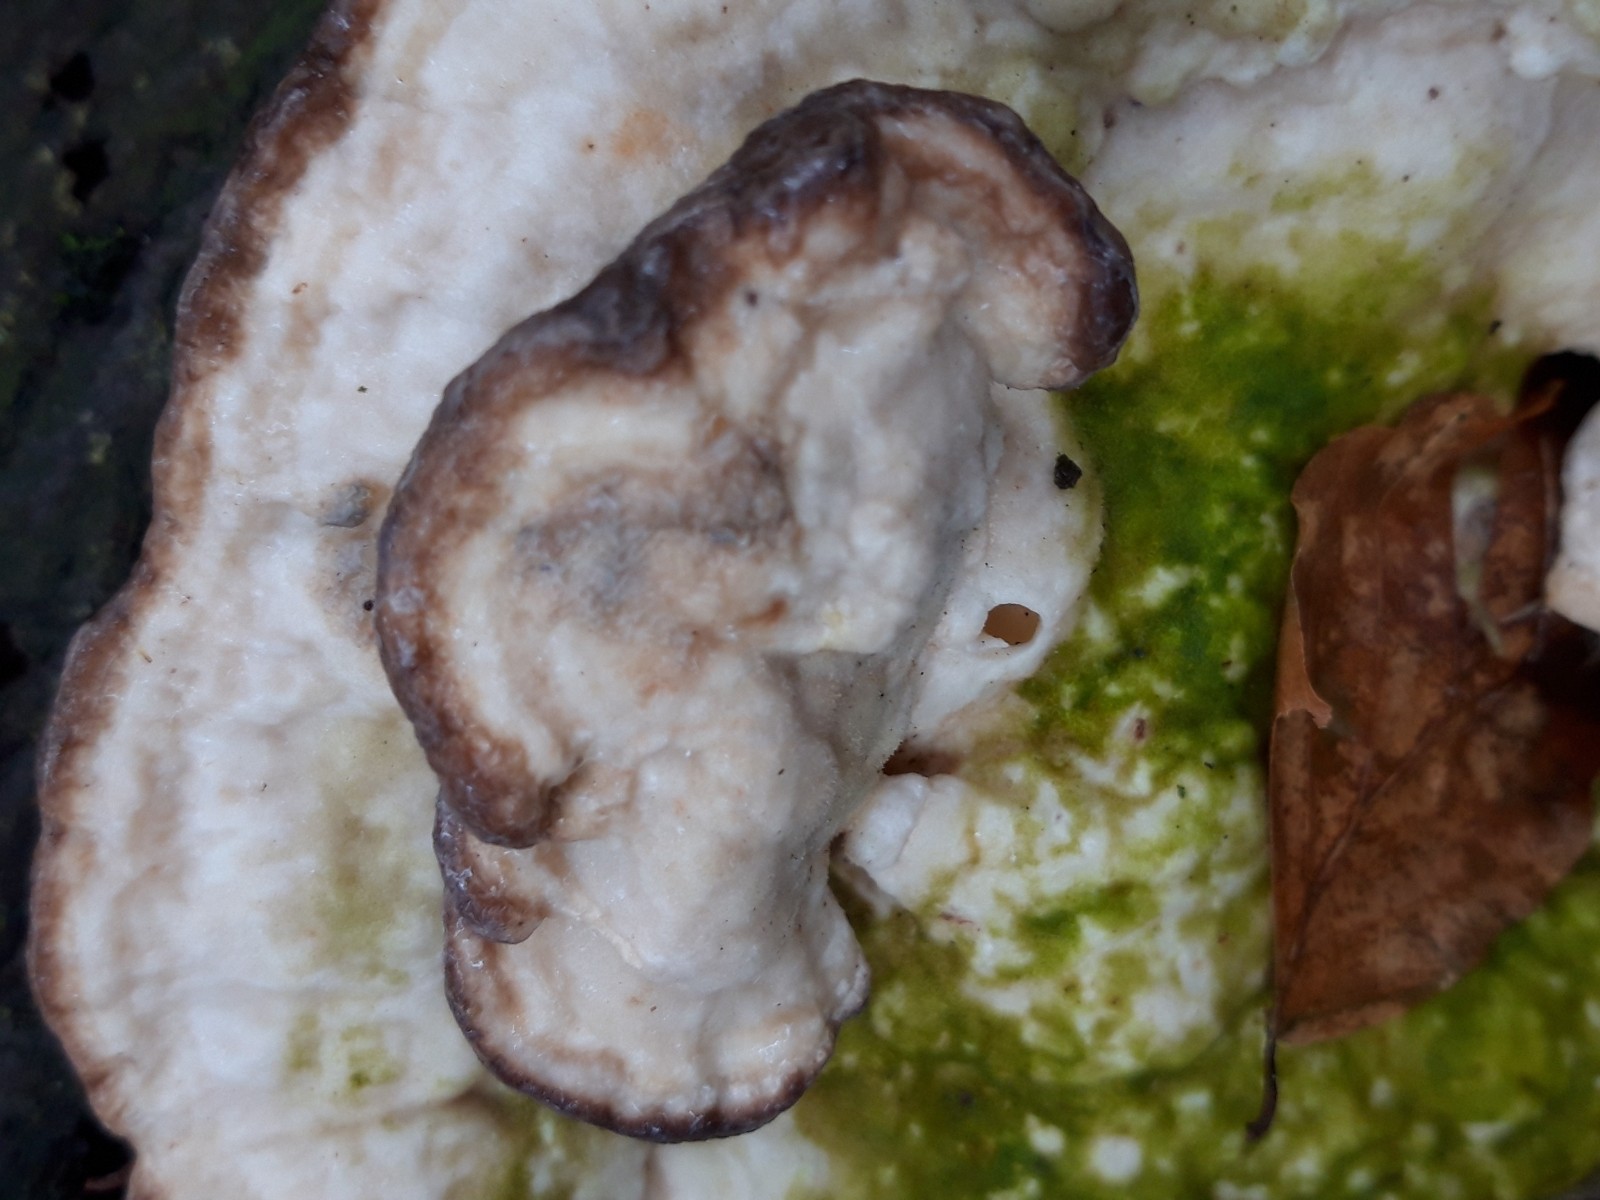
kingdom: Fungi
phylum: Basidiomycota
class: Agaricomycetes
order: Polyporales
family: Polyporaceae
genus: Trametes
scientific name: Trametes gibbosa
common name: puklet læderporesvamp
